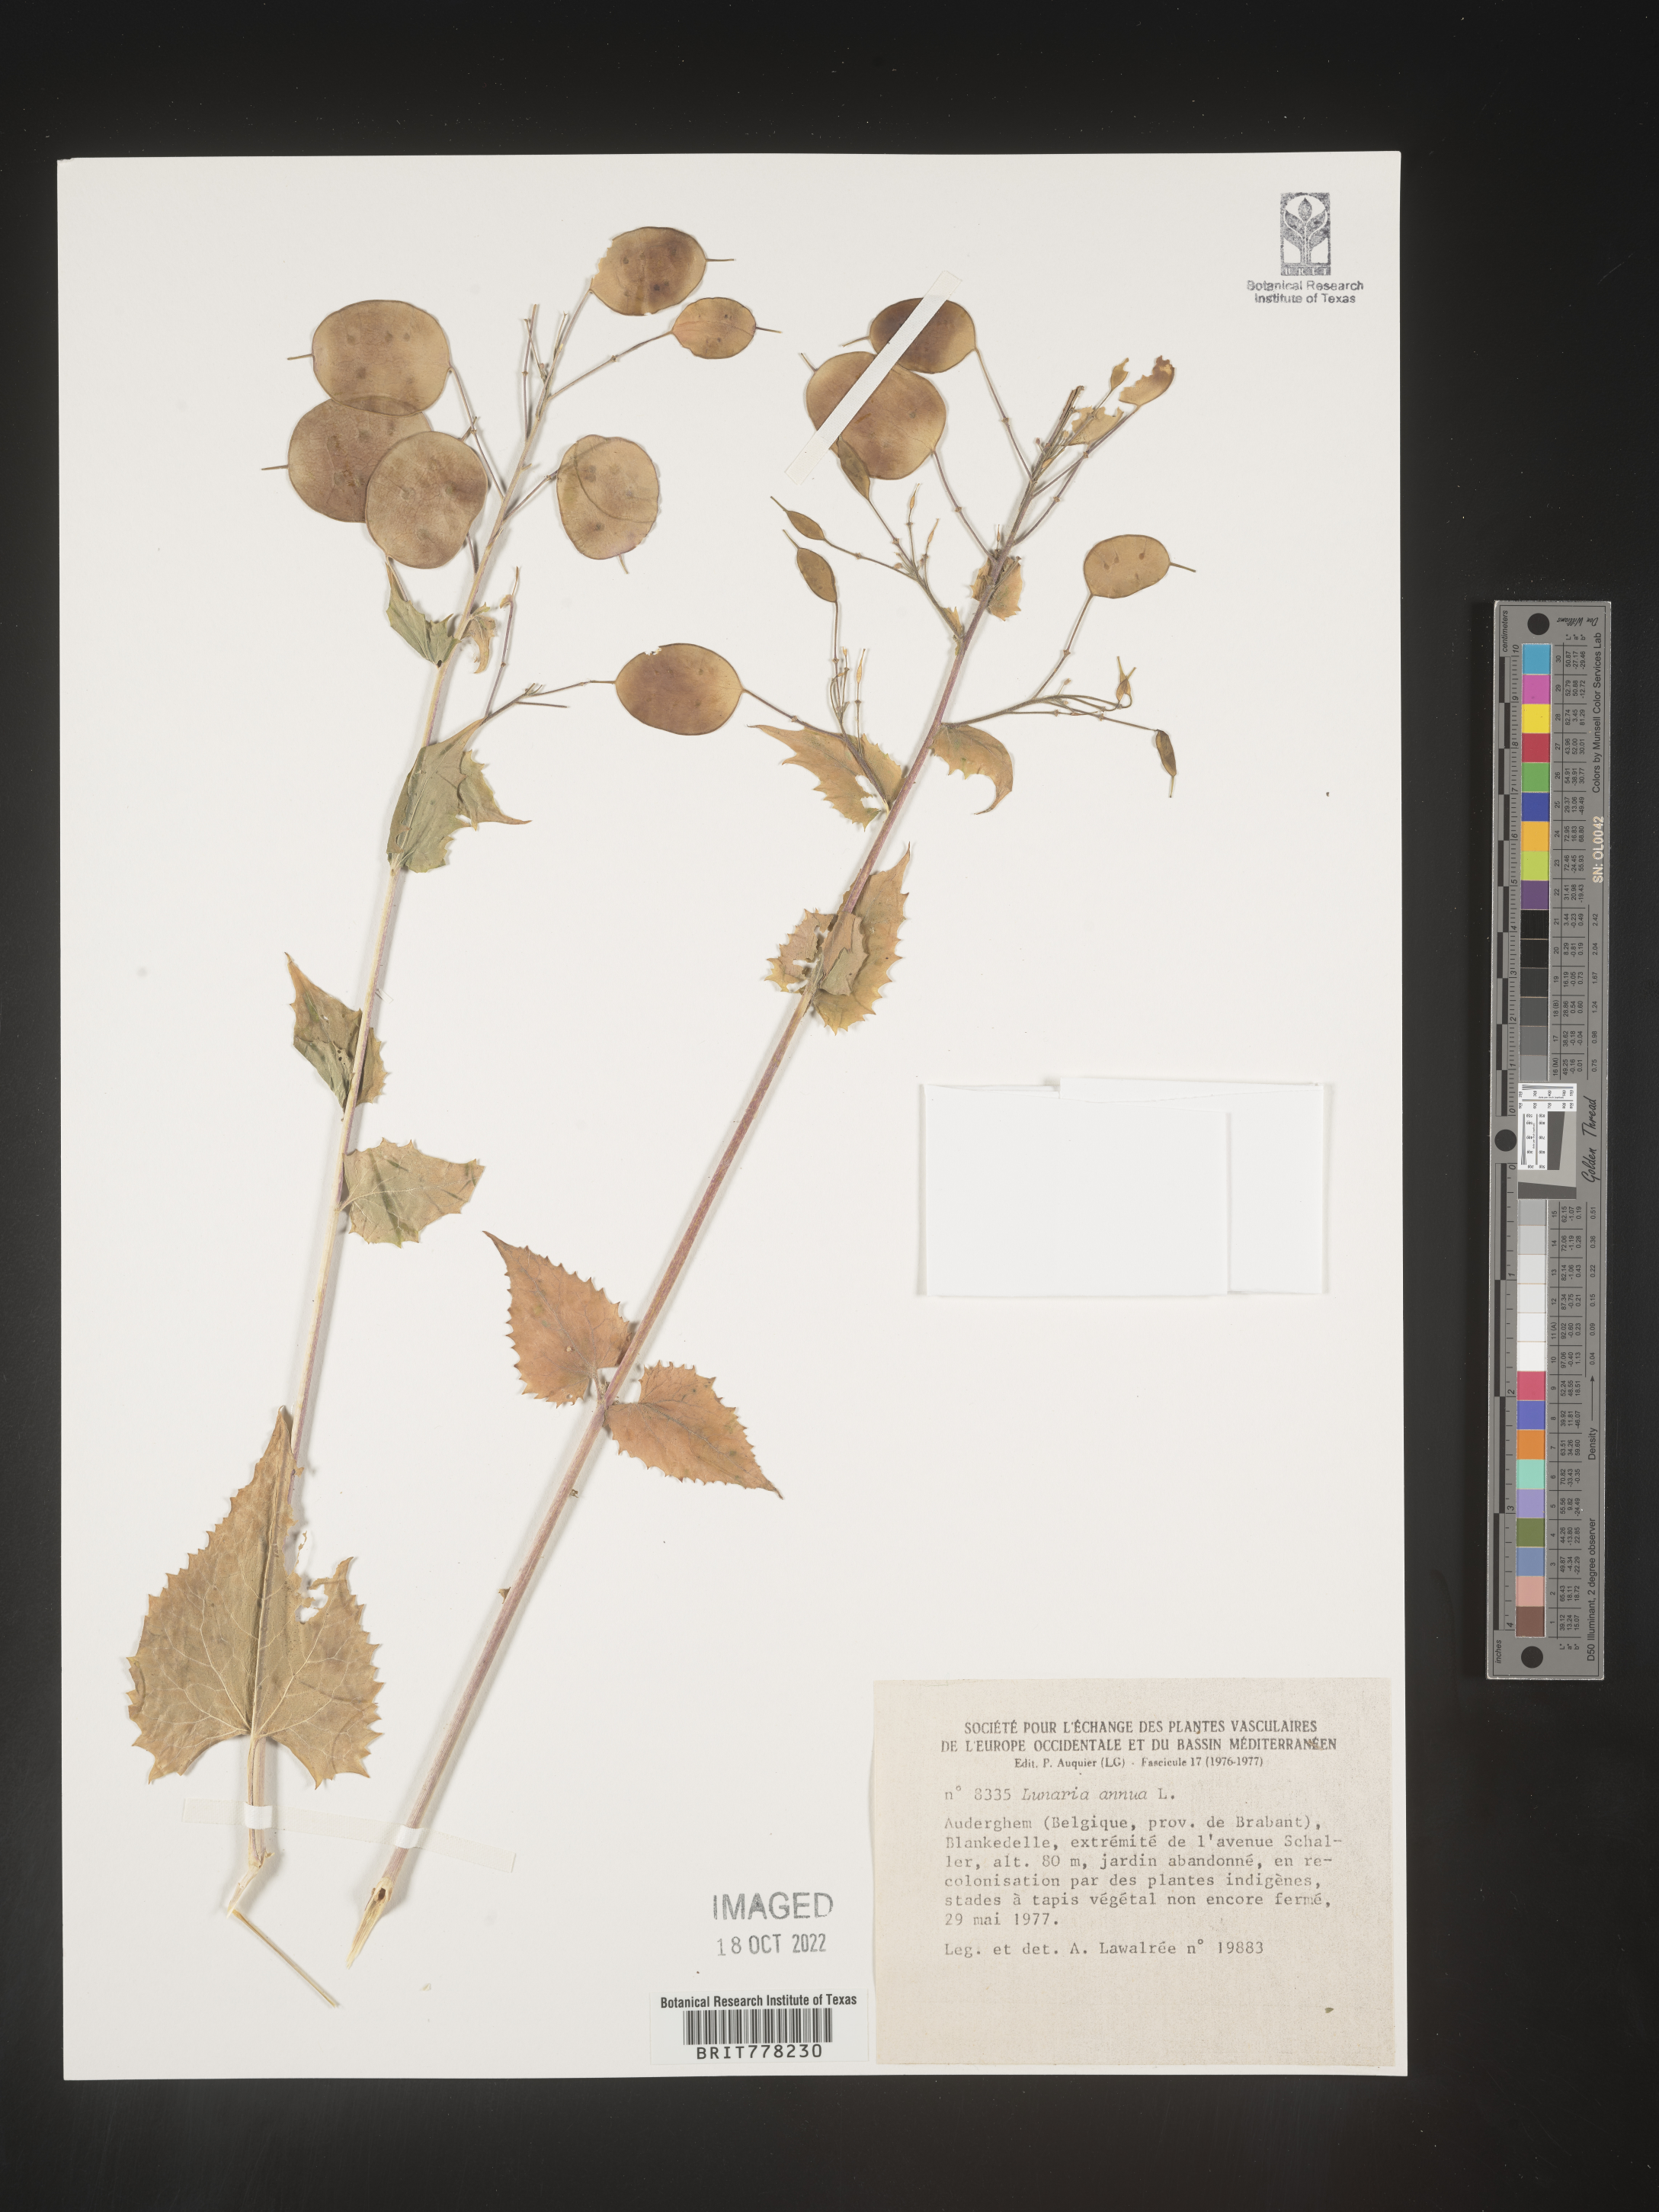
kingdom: Plantae
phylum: Tracheophyta
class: Magnoliopsida
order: Brassicales
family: Brassicaceae
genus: Lunaria
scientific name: Lunaria
